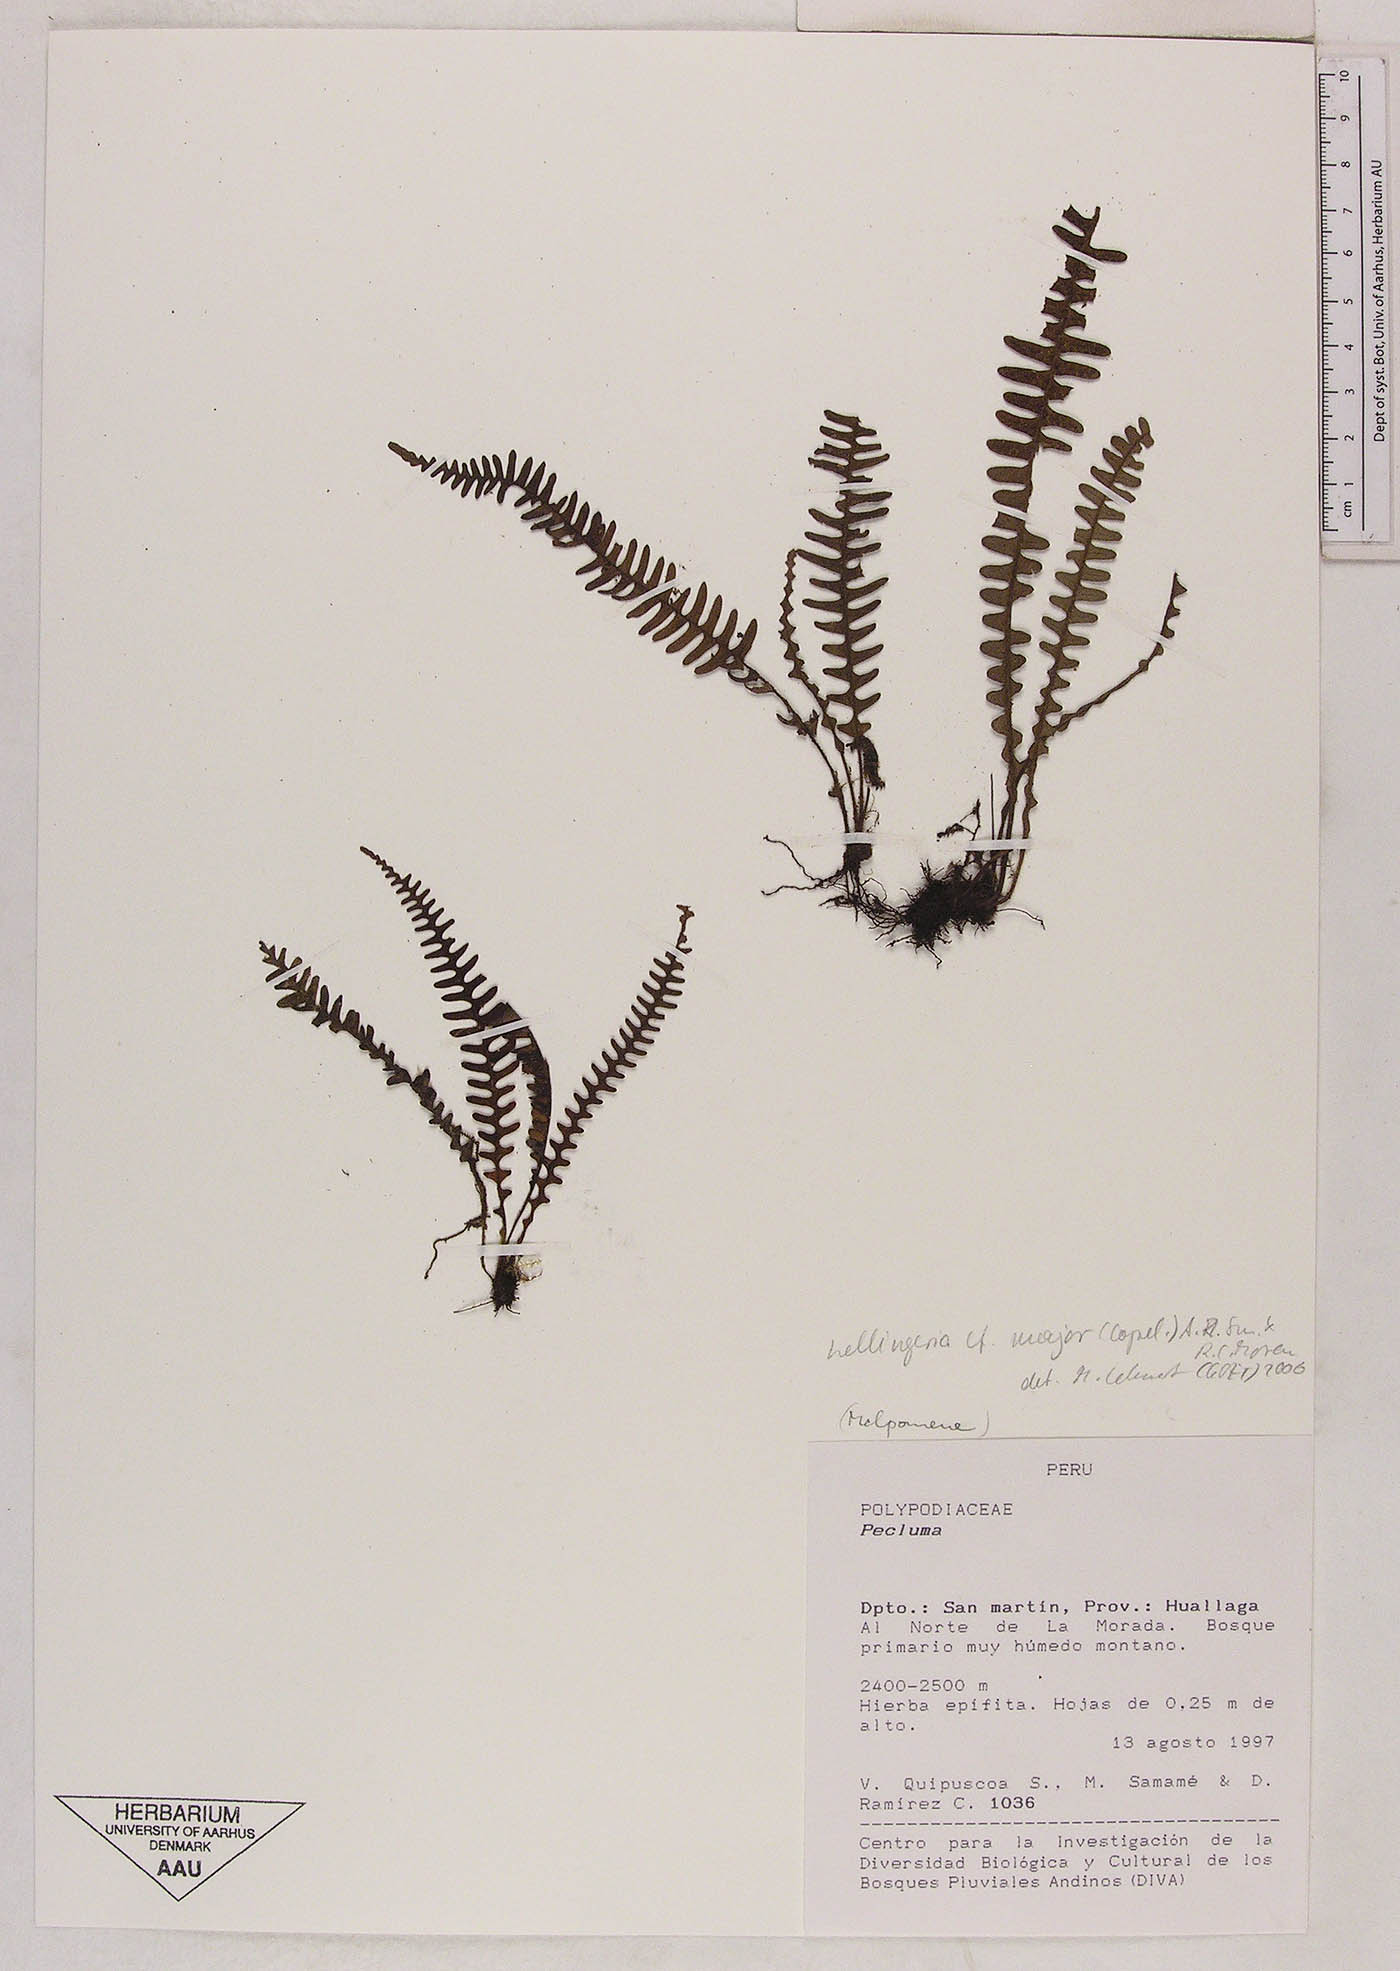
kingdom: Plantae
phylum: Tracheophyta
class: Polypodiopsida
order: Polypodiales
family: Polypodiaceae
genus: Ascogrammitis
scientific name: Ascogrammitis oxapampensis
